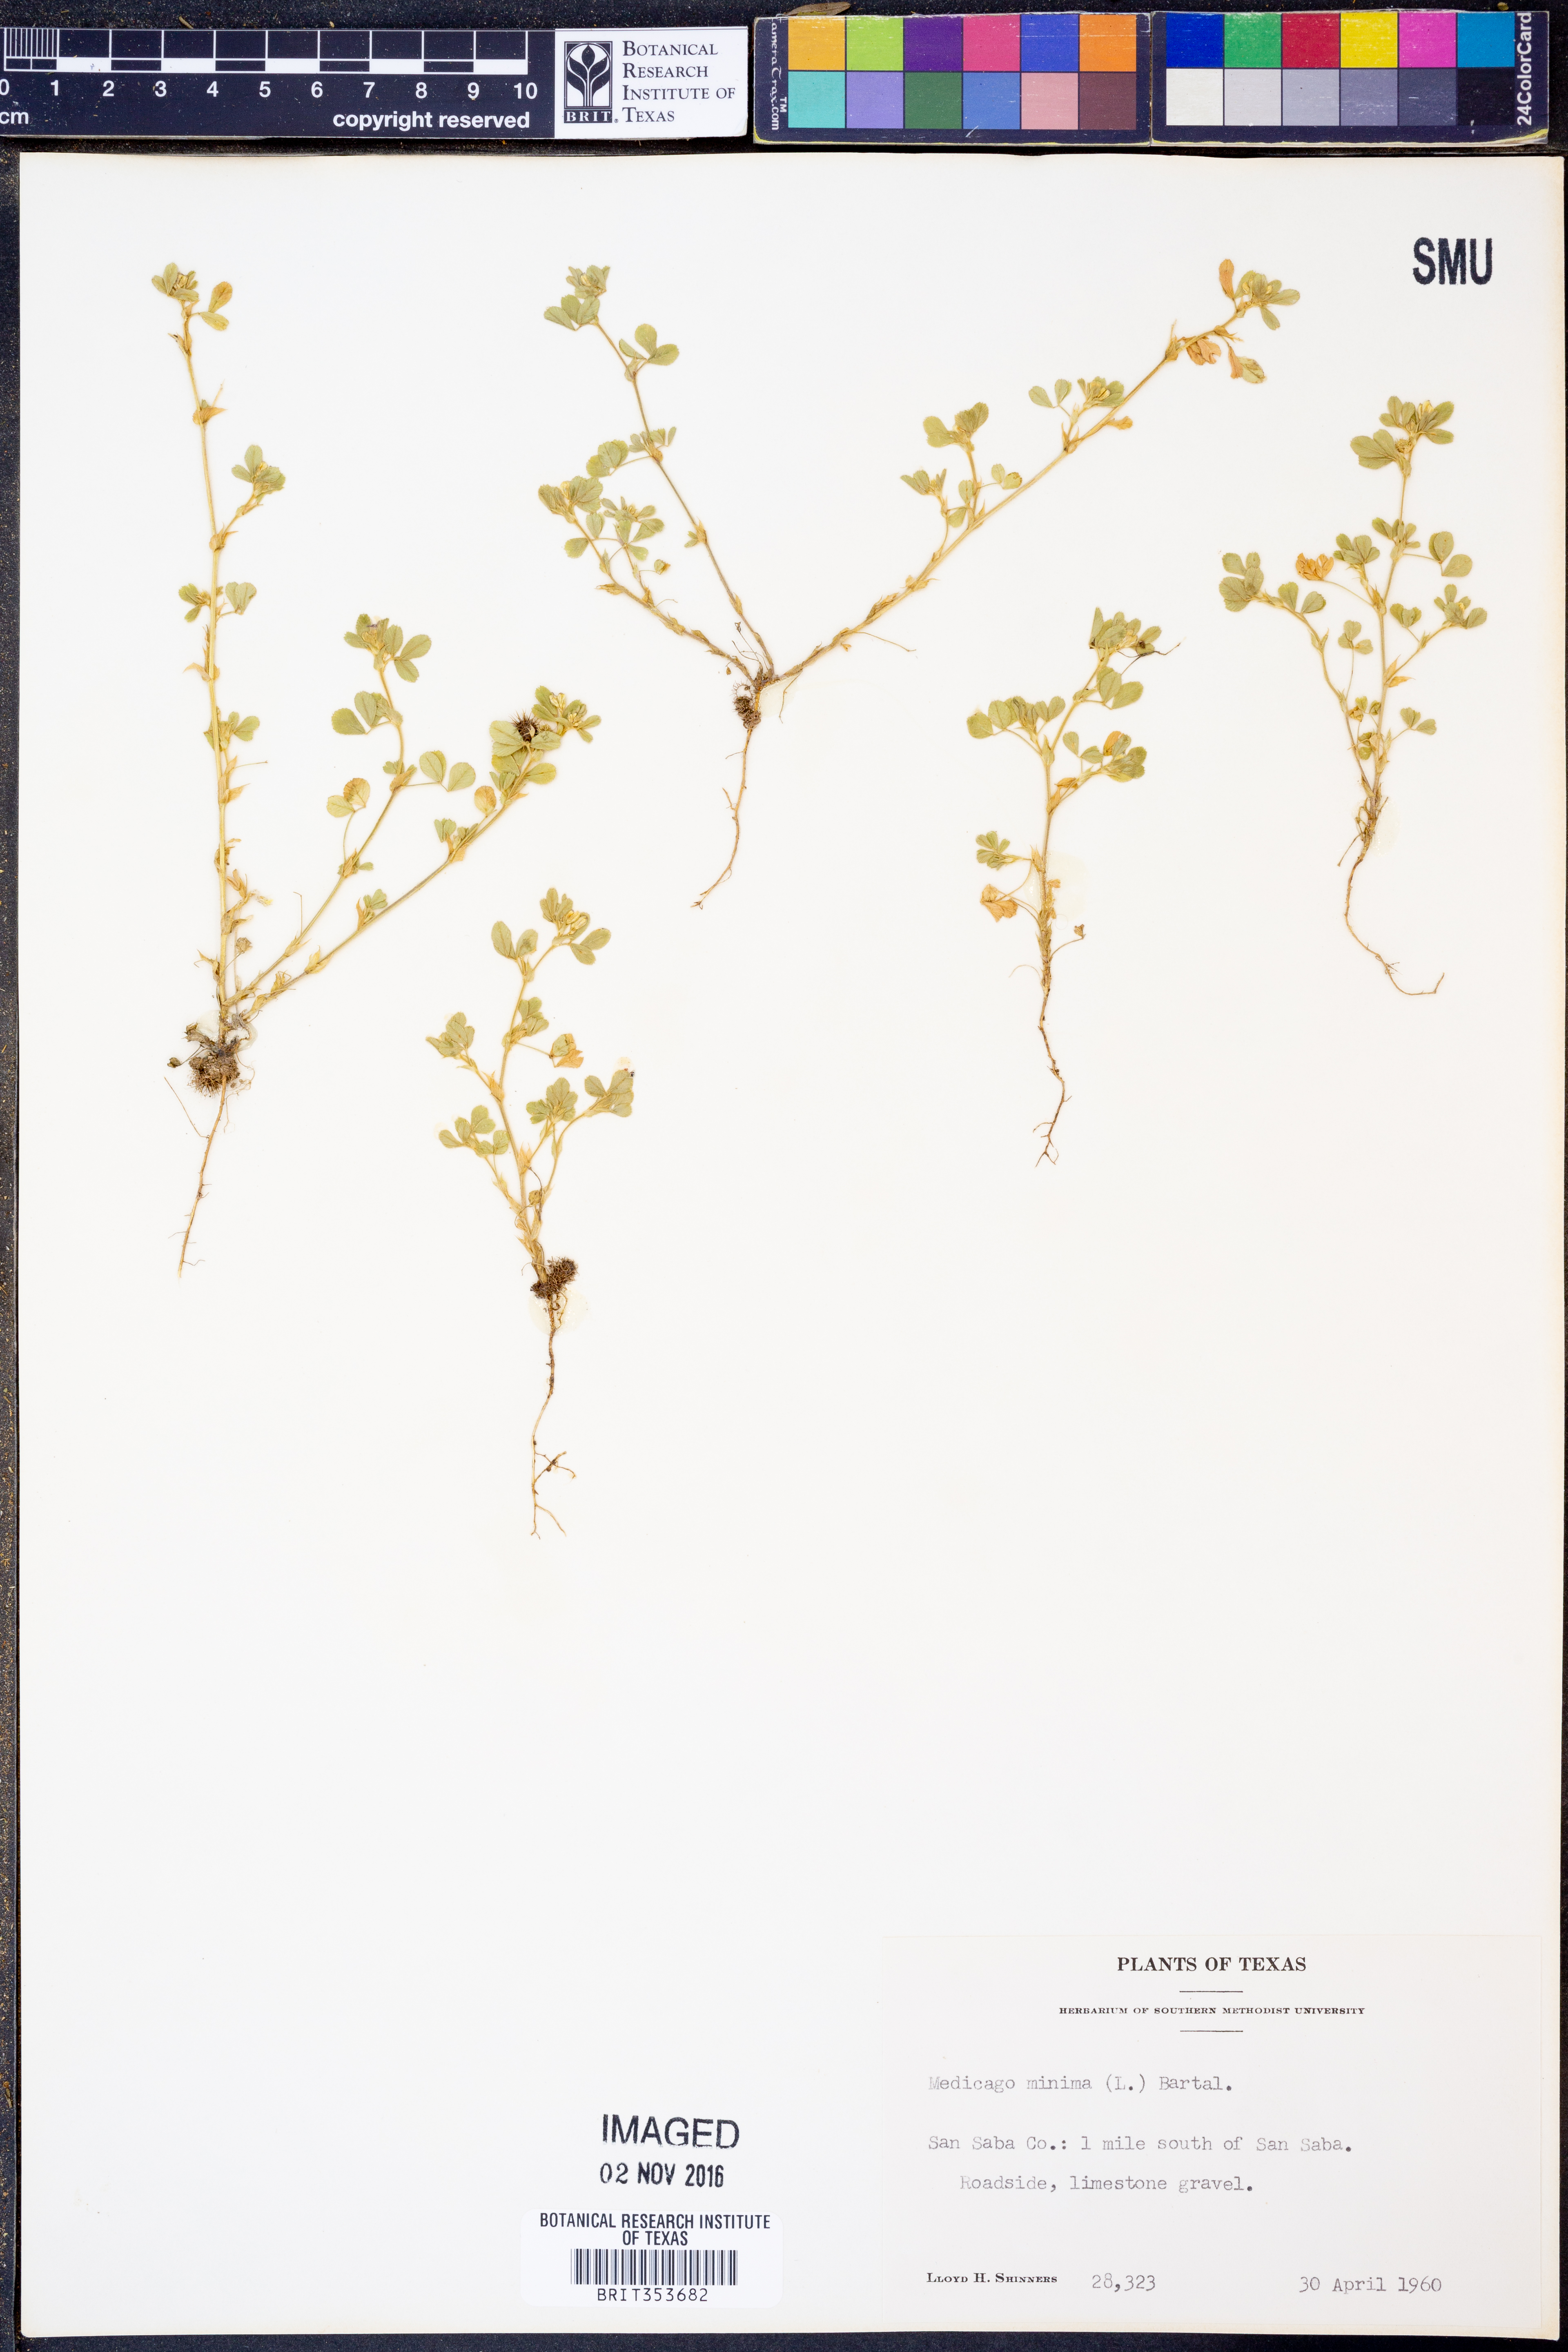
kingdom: Plantae
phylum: Tracheophyta
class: Magnoliopsida
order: Fabales
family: Fabaceae
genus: Medicago
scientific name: Medicago minima
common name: Little bur-clover
